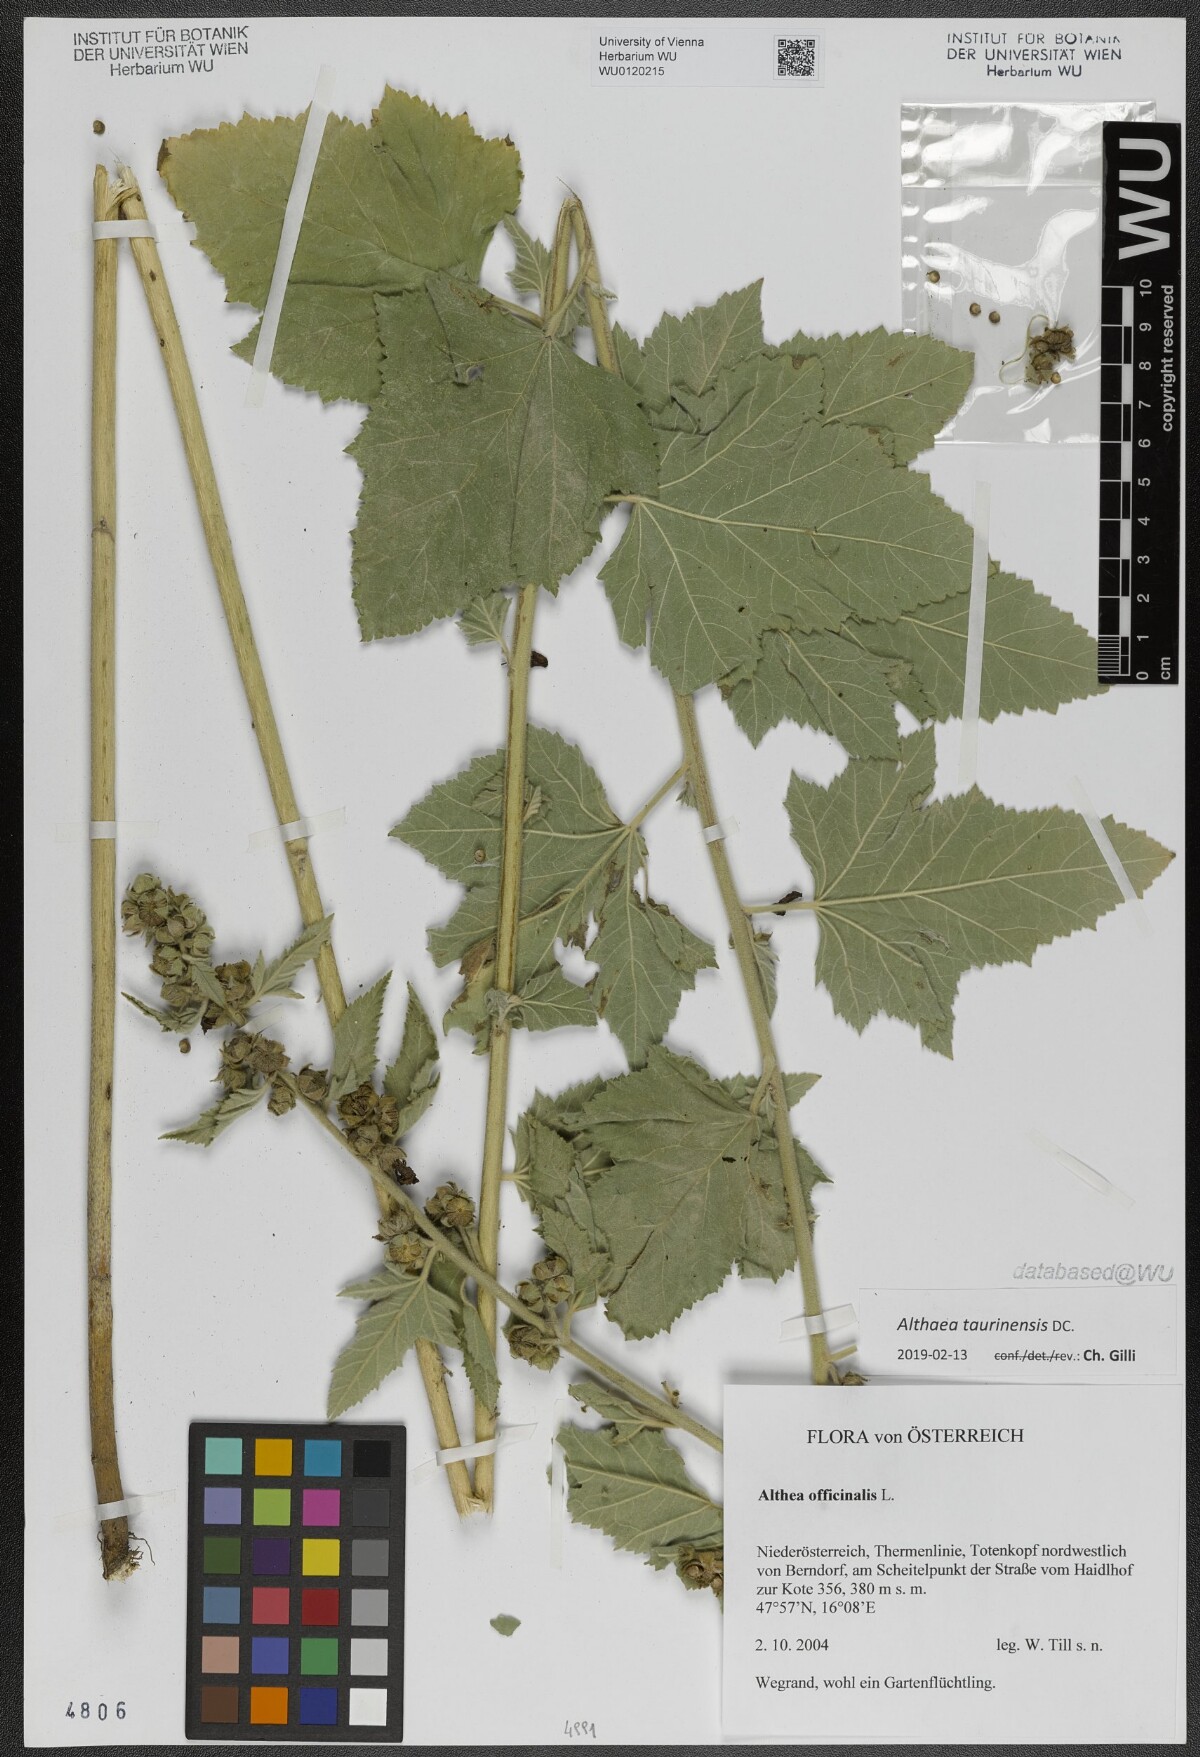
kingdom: Plantae
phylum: Tracheophyta
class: Magnoliopsida
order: Malvales
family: Malvaceae
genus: Althaea
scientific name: Althaea taurinensis
